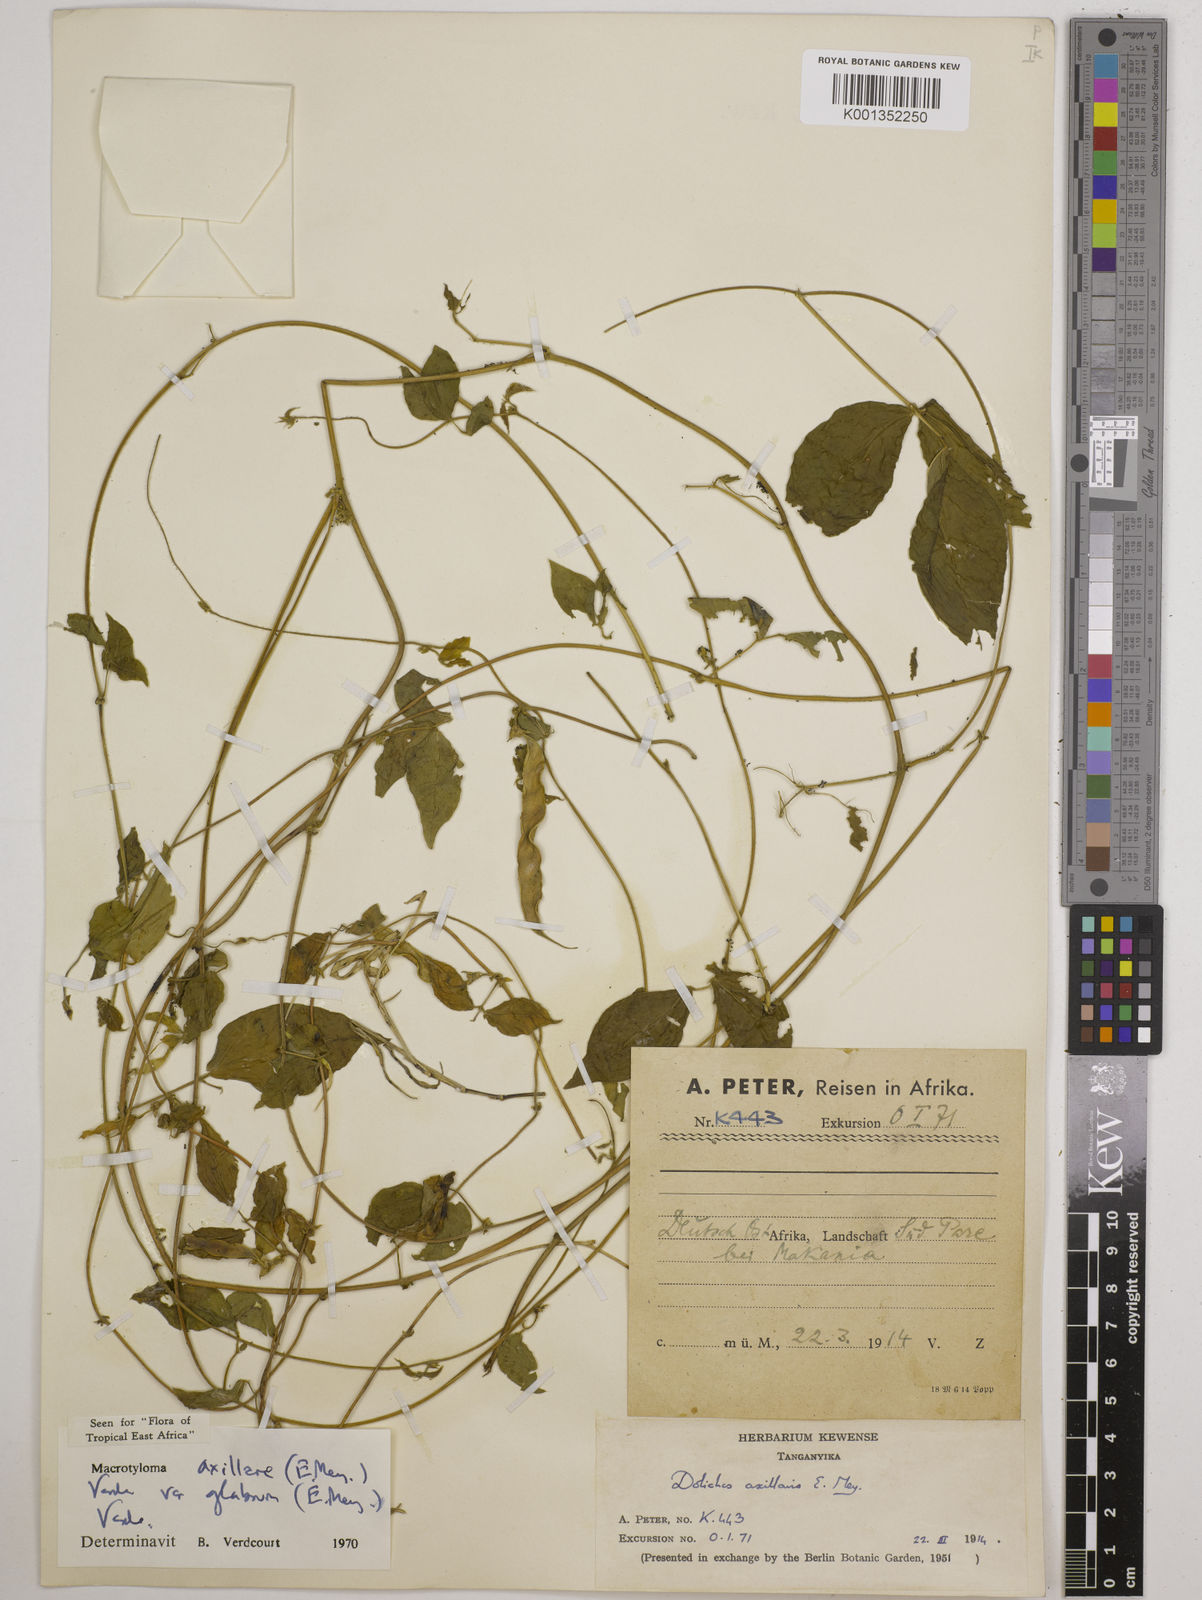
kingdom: Plantae
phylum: Tracheophyta
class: Magnoliopsida
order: Fabales
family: Fabaceae
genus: Macrotyloma
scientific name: Macrotyloma
